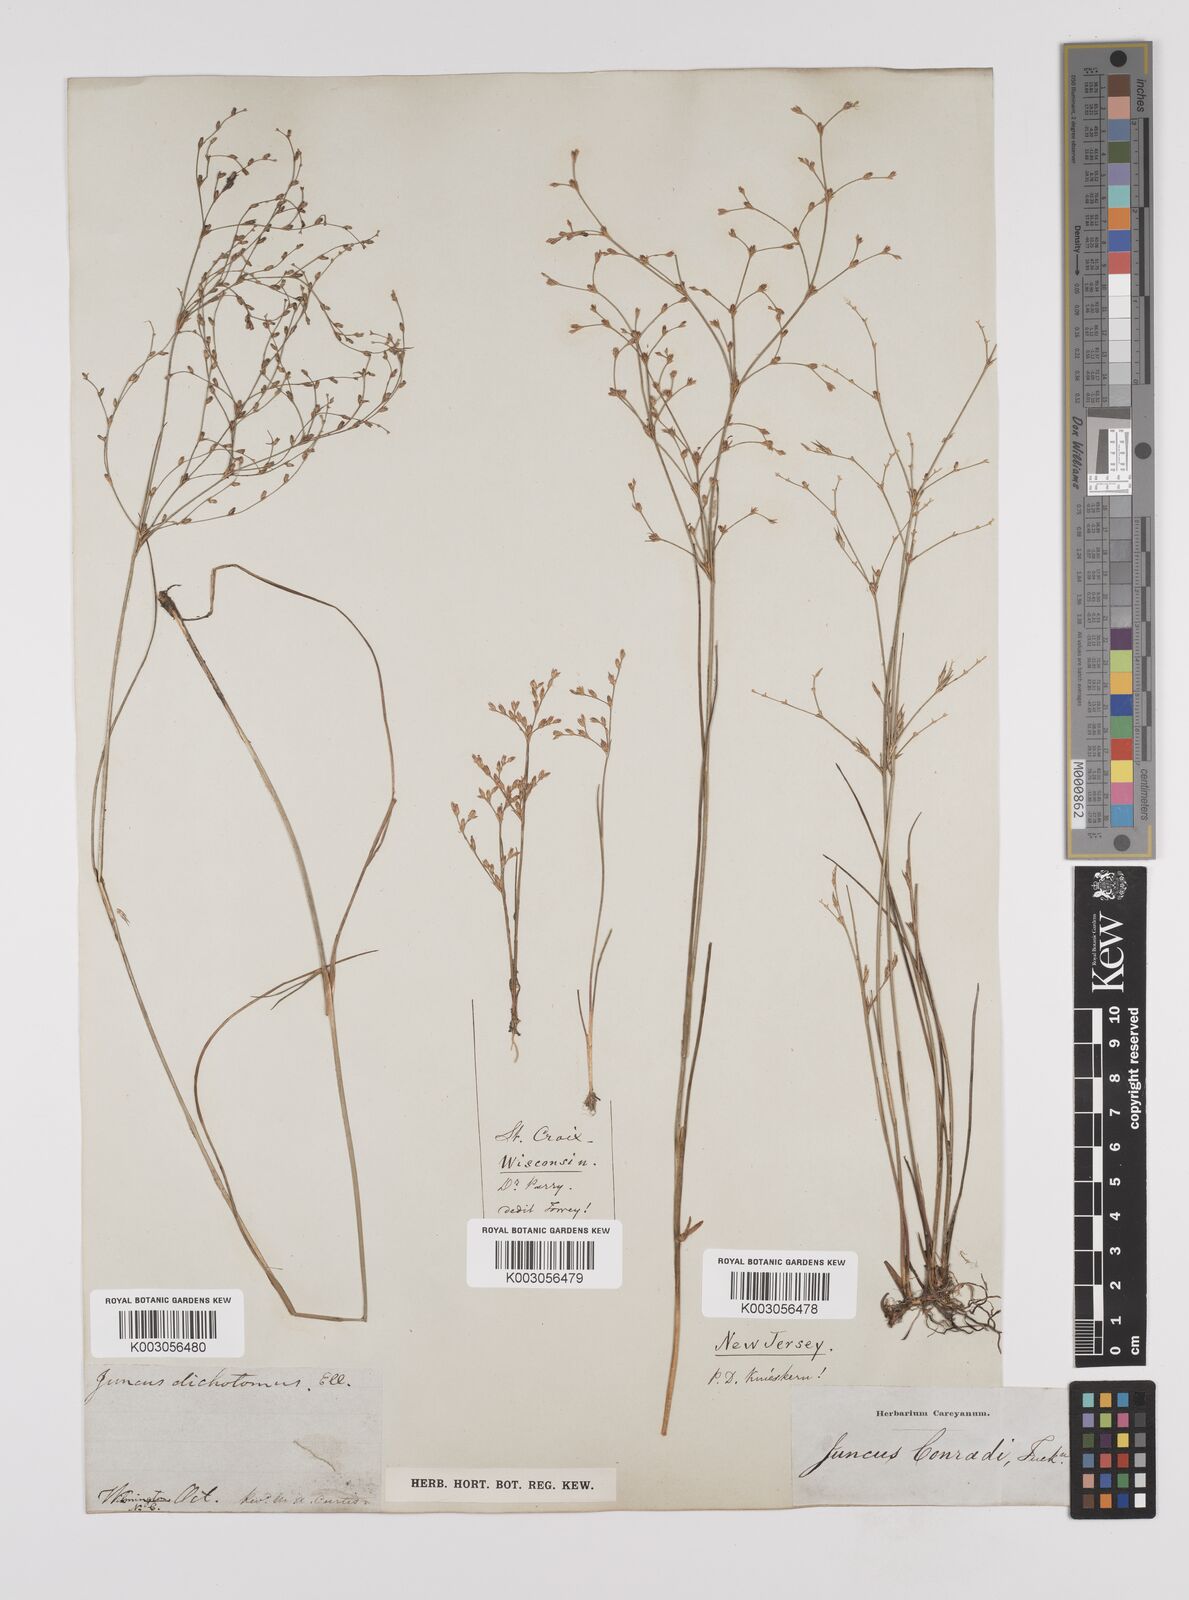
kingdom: Plantae
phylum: Tracheophyta
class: Liliopsida
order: Poales
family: Juncaceae
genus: Juncus
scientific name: Juncus dichotomus
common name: Forked rush
